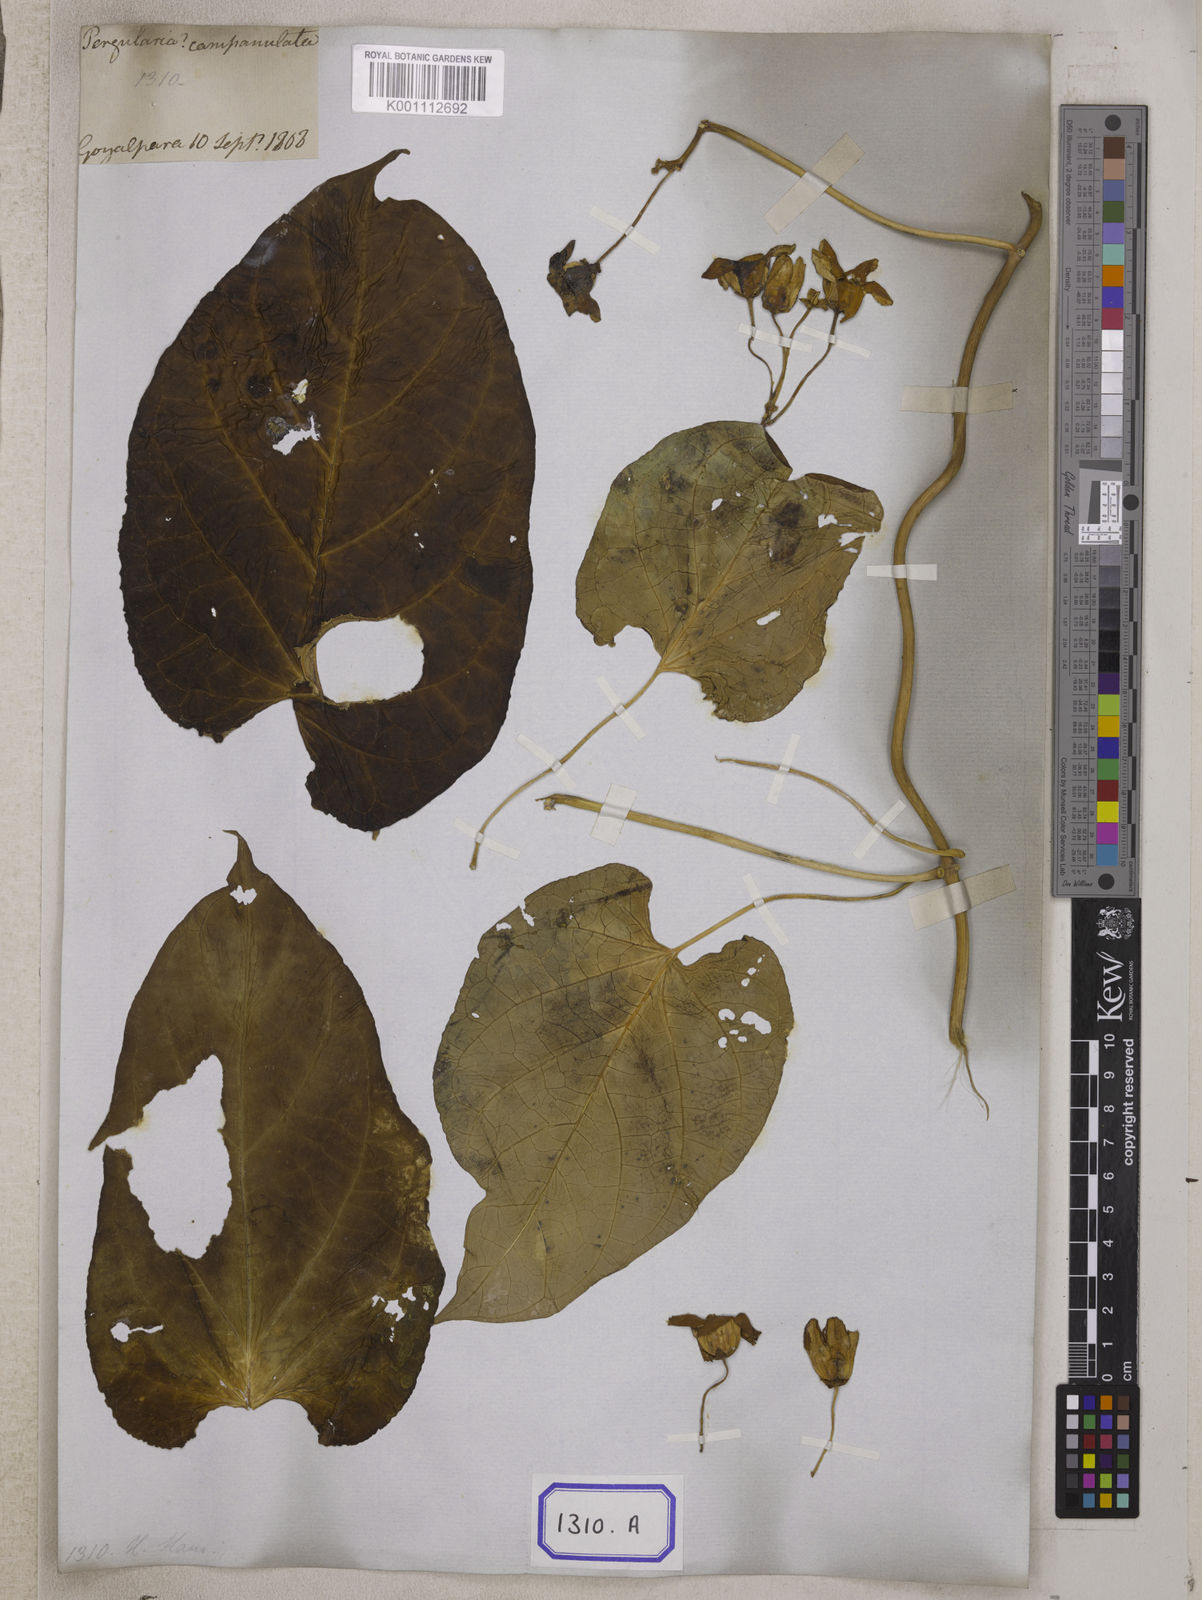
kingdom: Plantae
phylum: Tracheophyta
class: Magnoliopsida
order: Gentianales
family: Apocynaceae
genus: Cynanchum
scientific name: Cynanchum pulchellum
